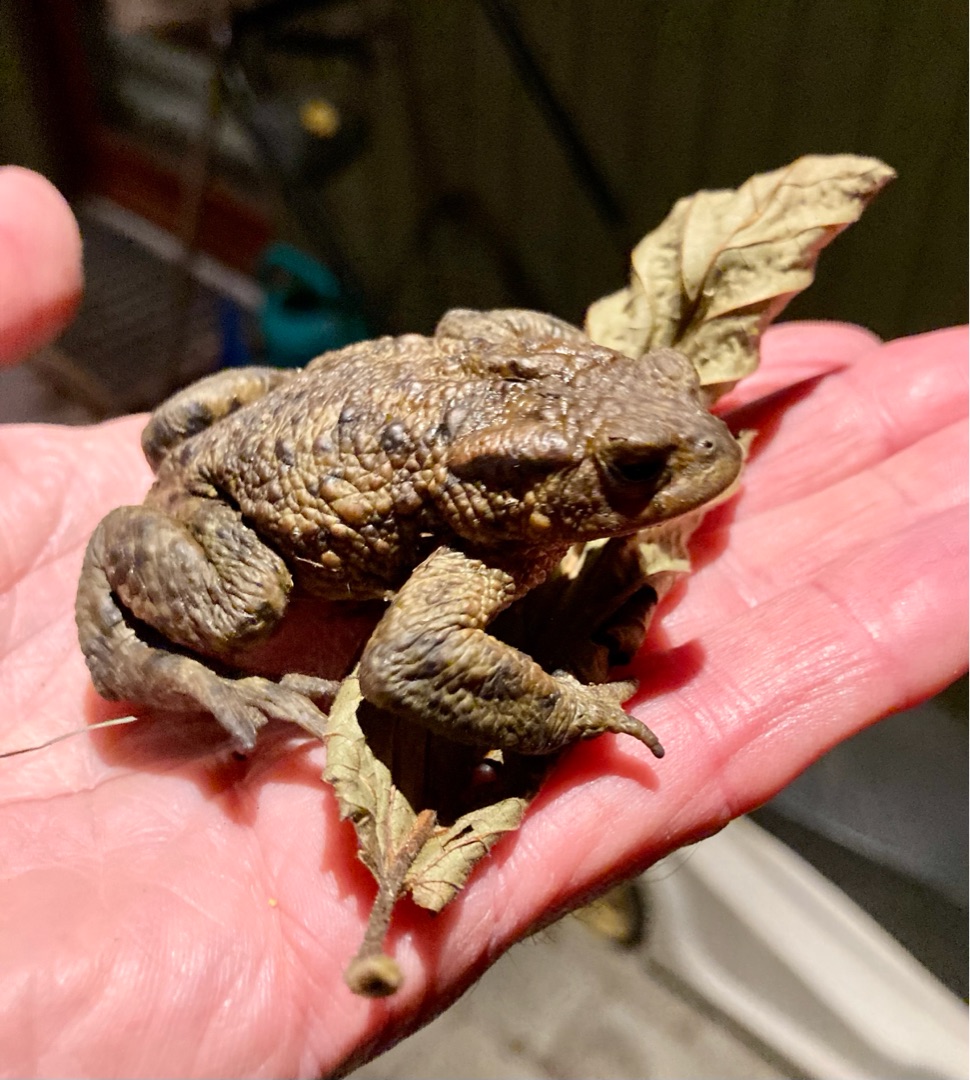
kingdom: Animalia
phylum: Chordata
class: Amphibia
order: Anura
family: Bufonidae
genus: Bufo
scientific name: Bufo bufo
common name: Skrubtudse
